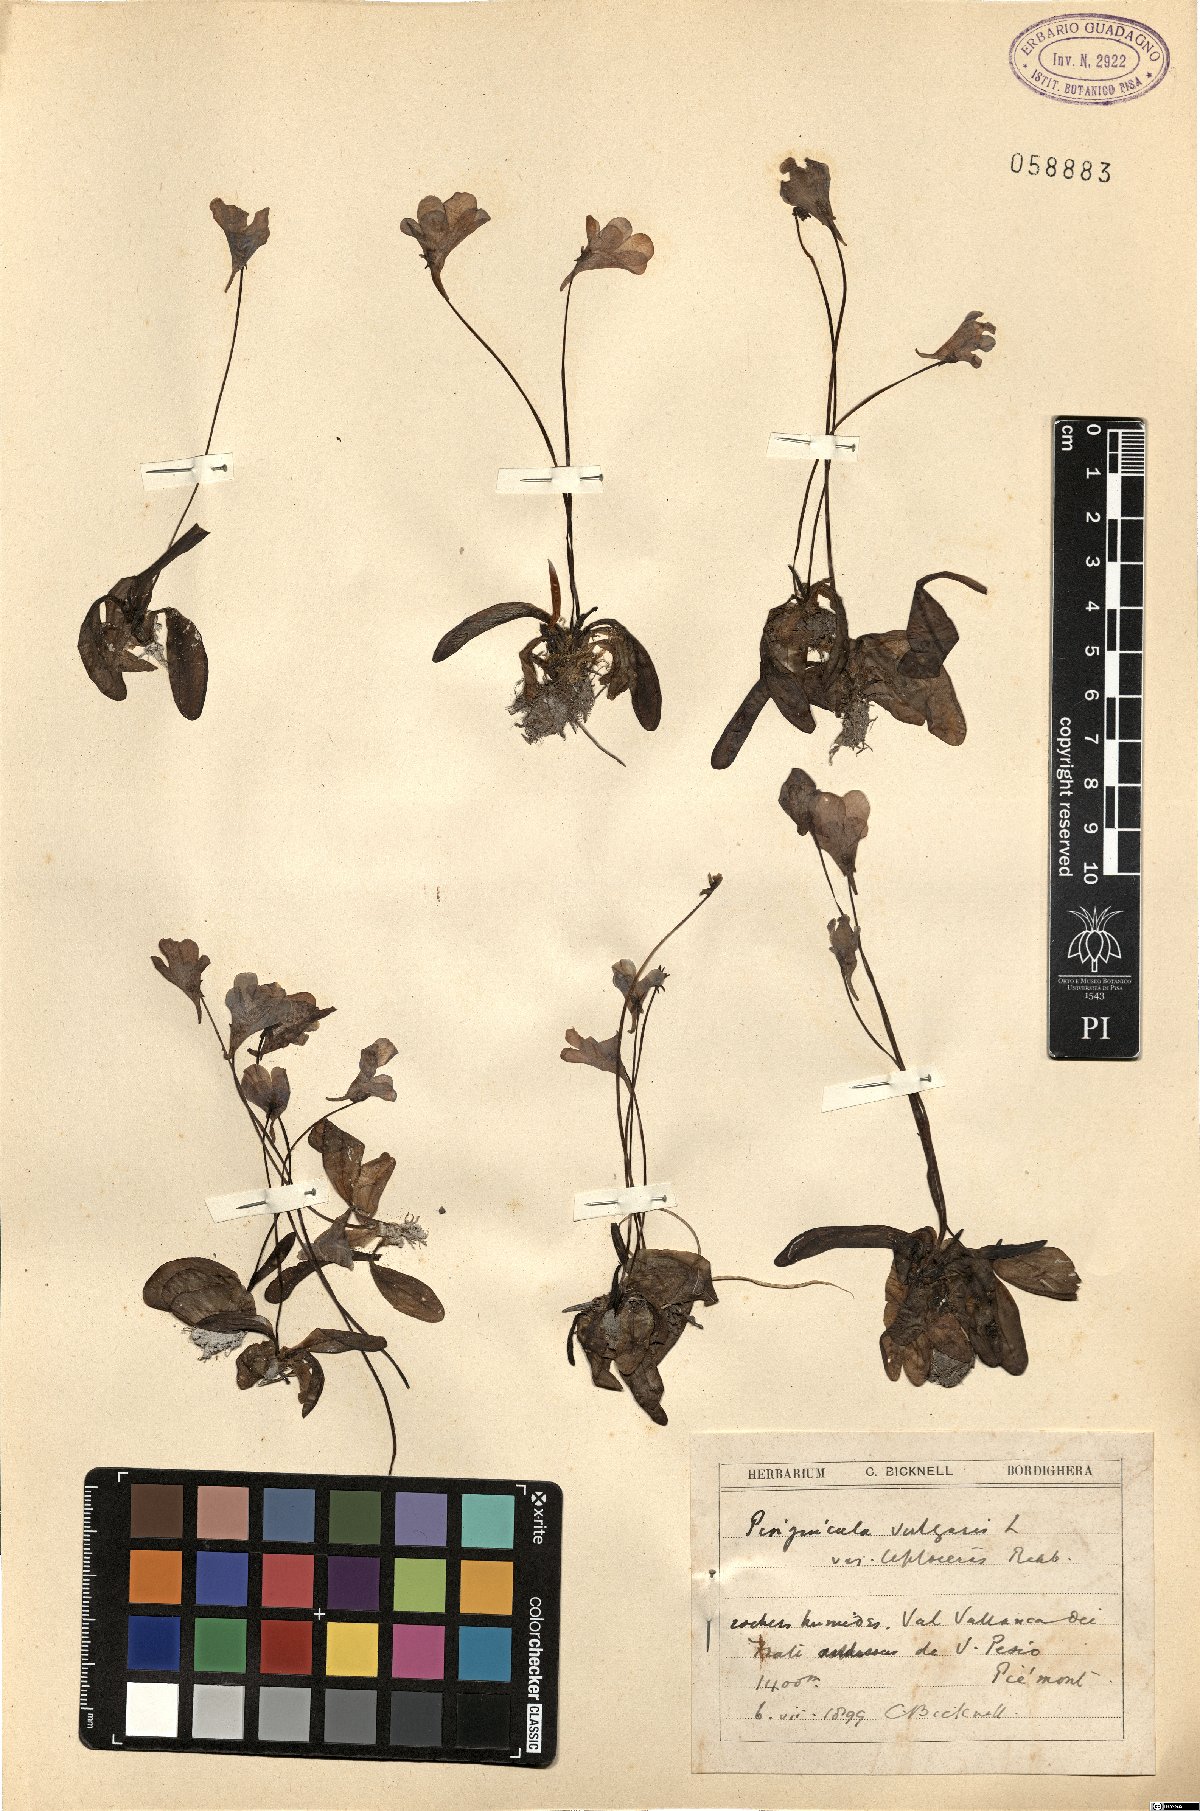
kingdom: Plantae
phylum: Tracheophyta
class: Magnoliopsida
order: Lamiales
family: Lentibulariaceae
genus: Pinguicula
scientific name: Pinguicula vulgaris
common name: Common butterwort
